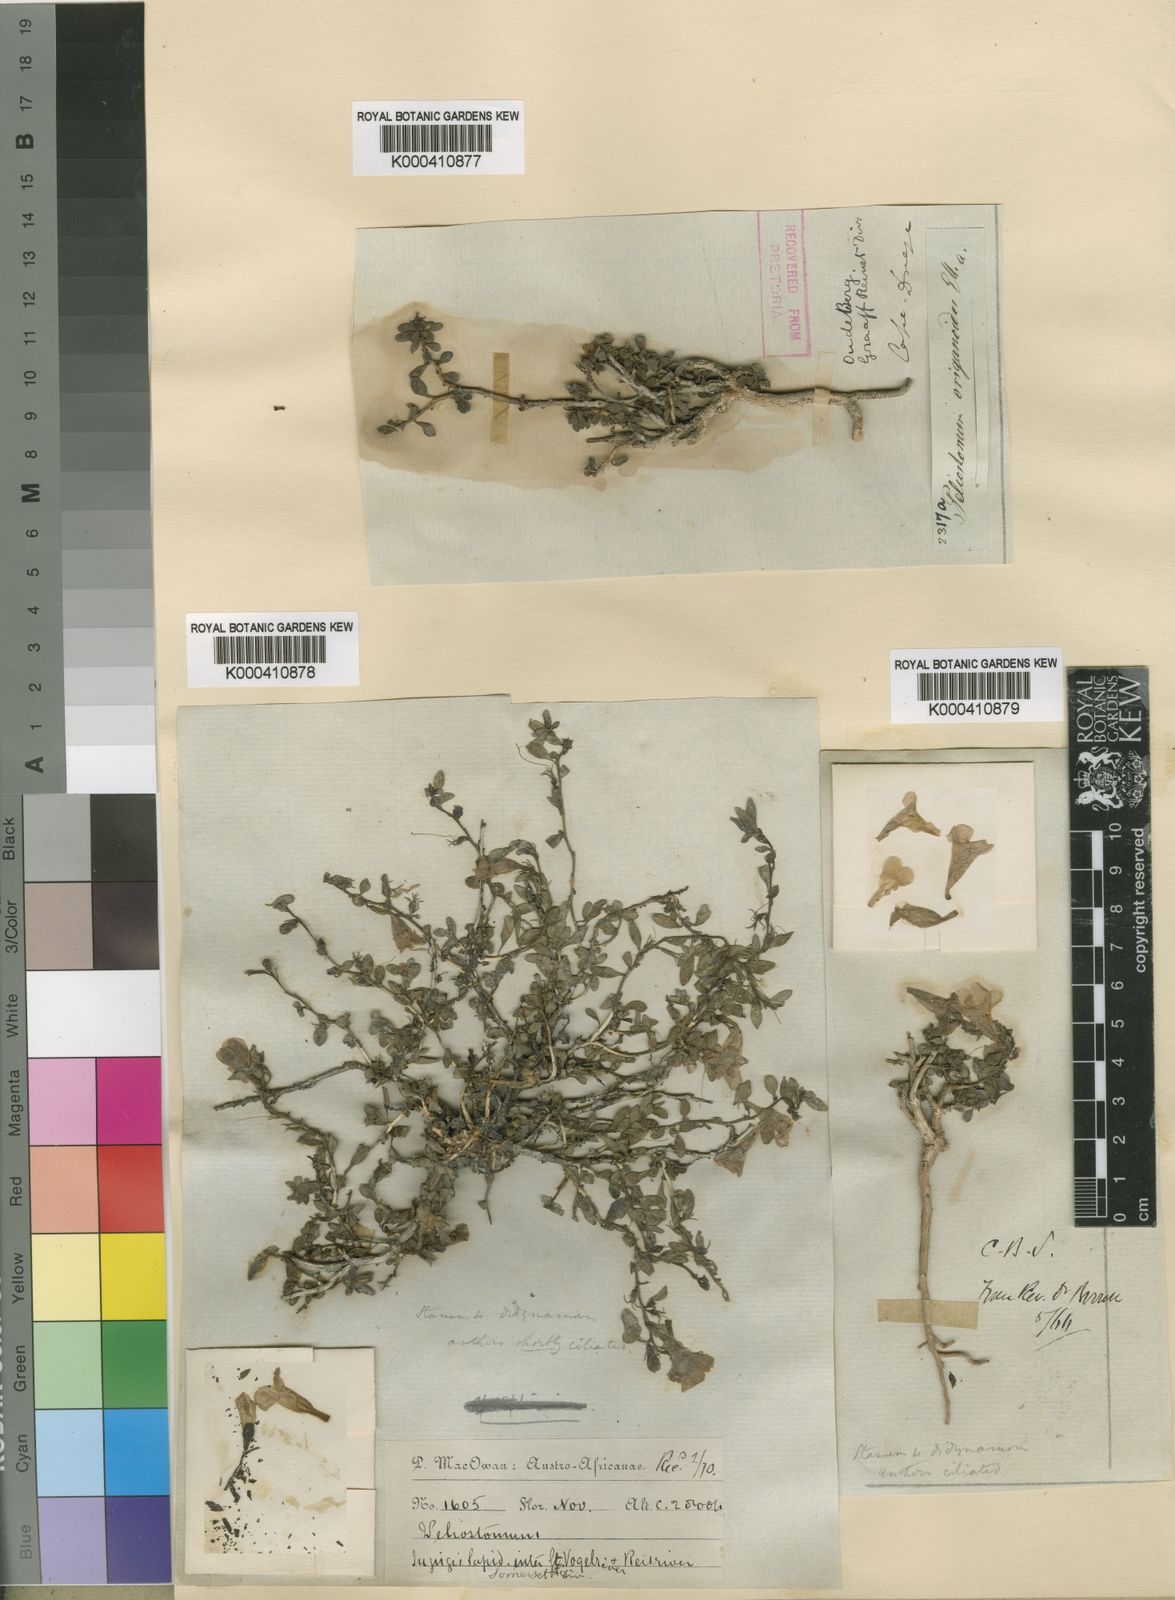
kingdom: Plantae
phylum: Tracheophyta
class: Magnoliopsida
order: Lamiales
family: Scrophulariaceae
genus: Peliostomum
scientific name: Peliostomum origanoides
